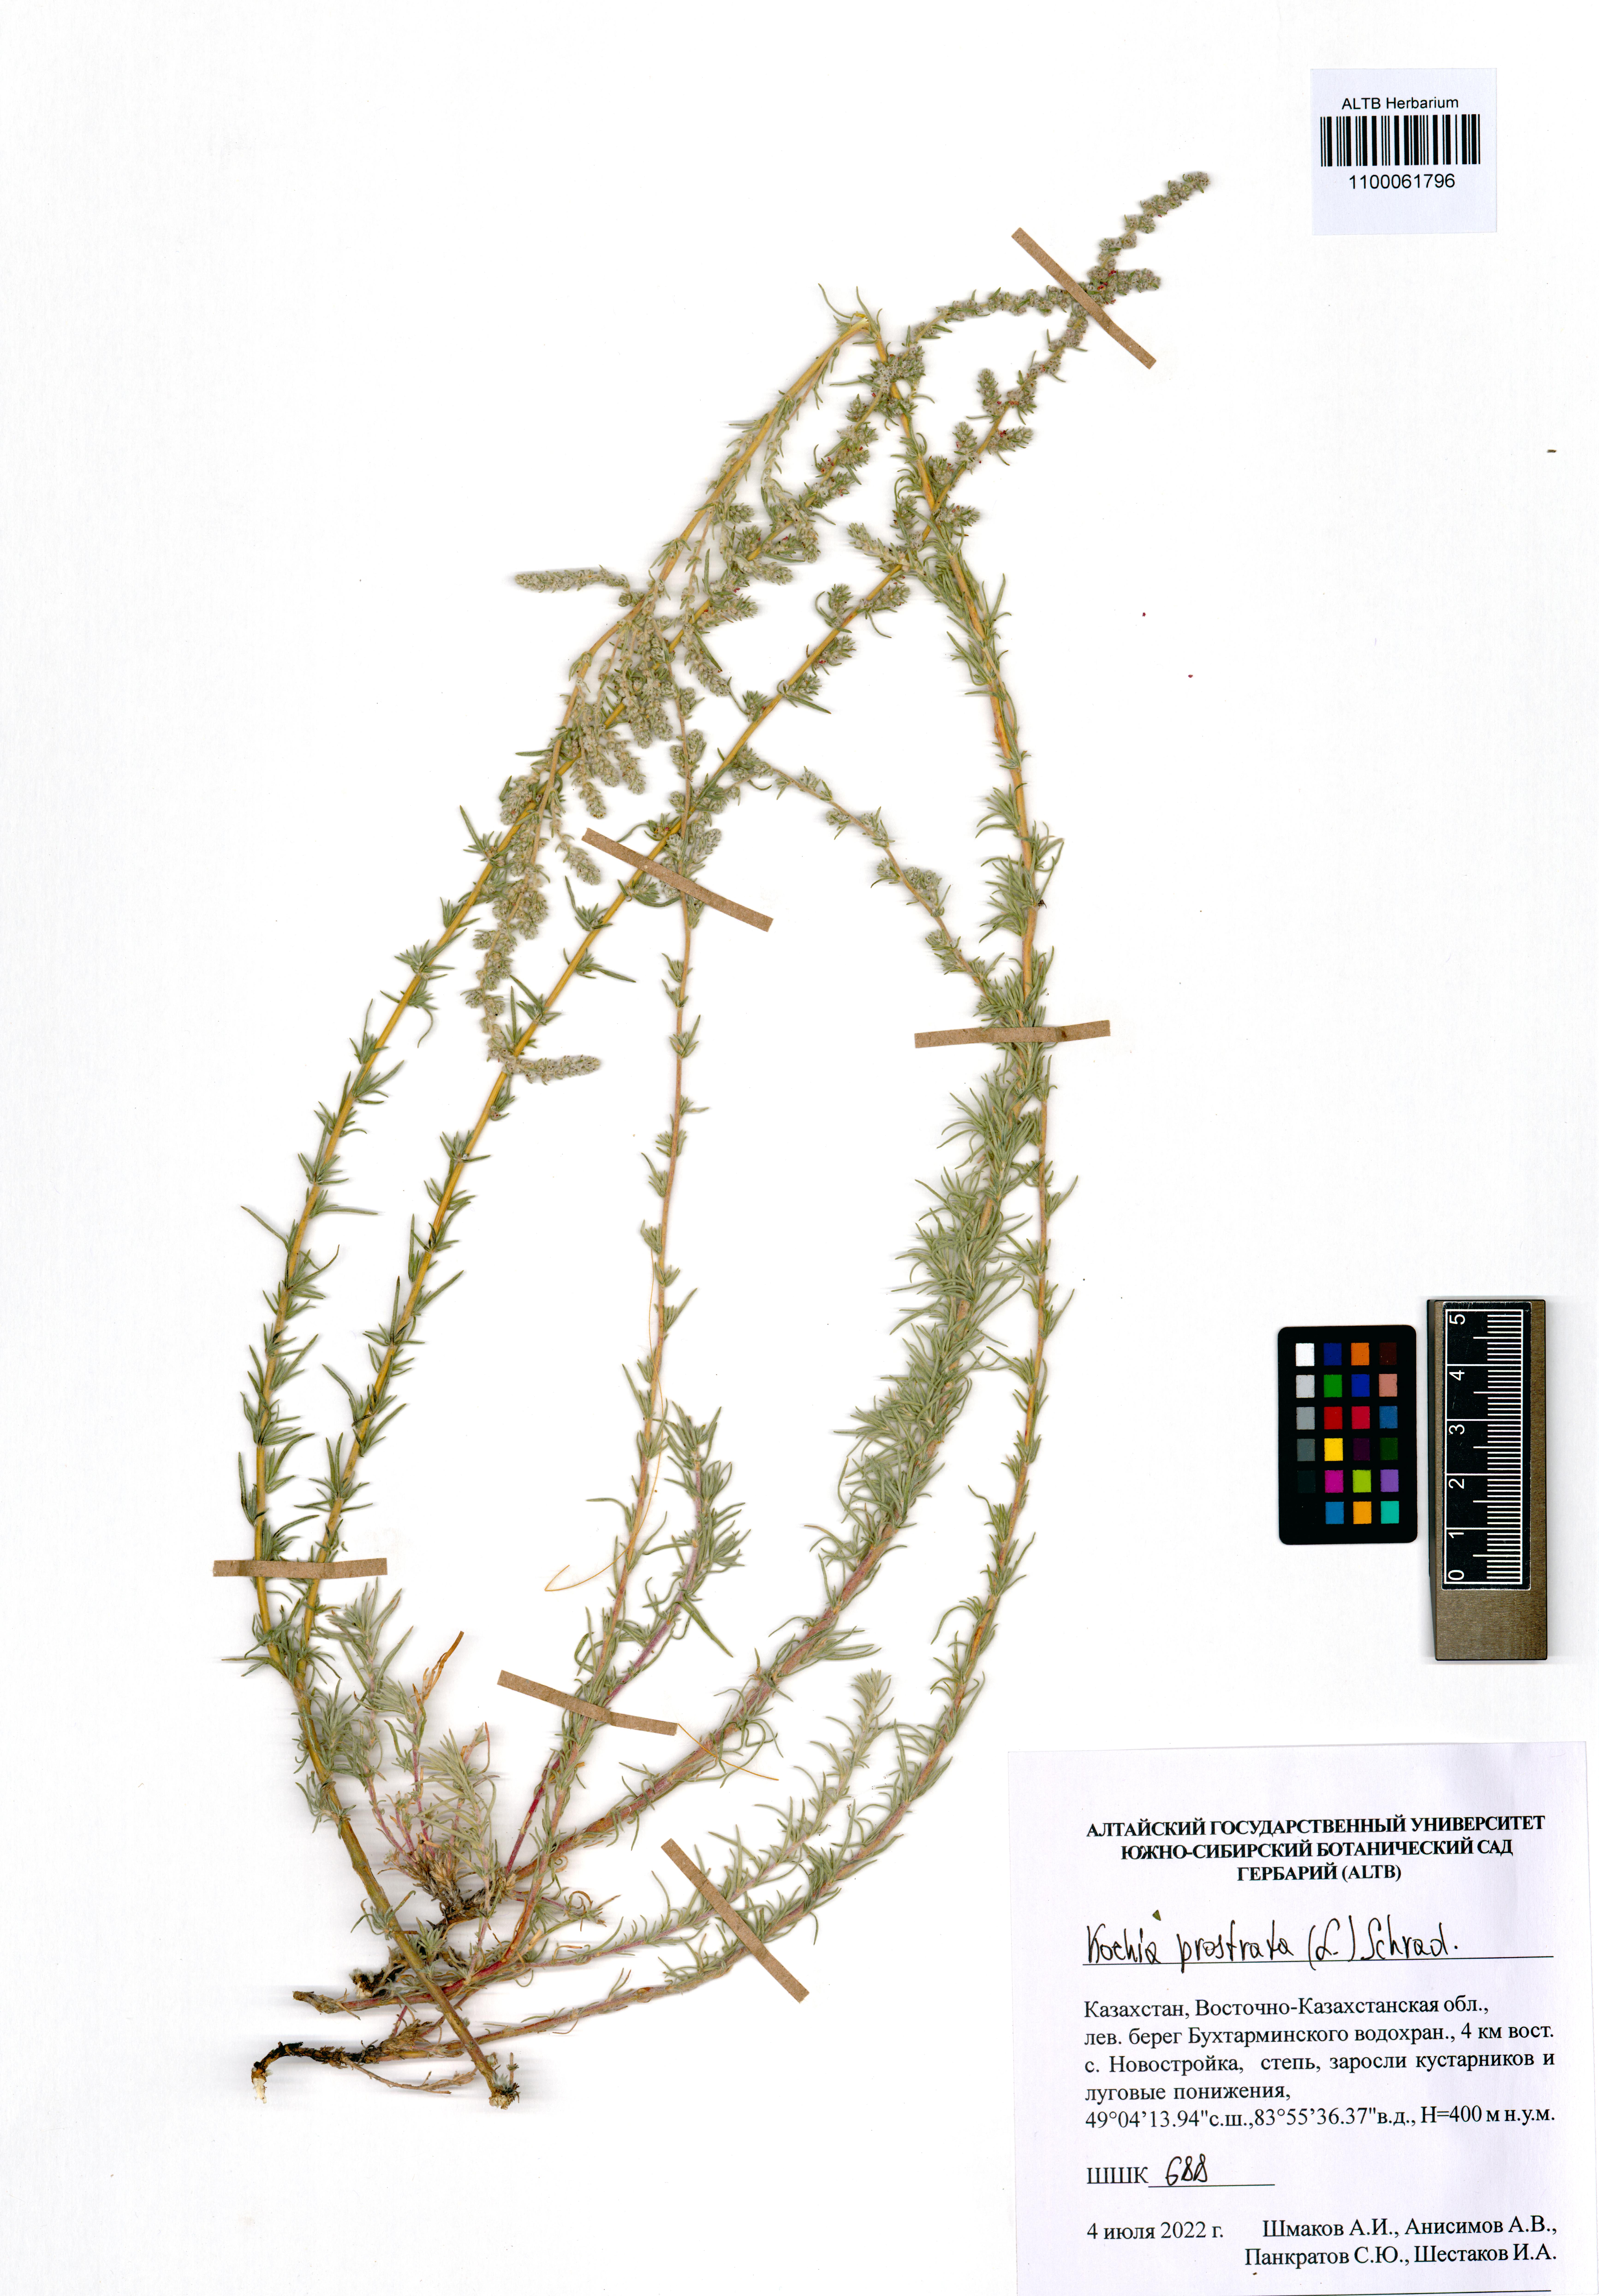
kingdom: Plantae
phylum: Tracheophyta
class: Magnoliopsida
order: Caryophyllales
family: Amaranthaceae
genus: Bassia
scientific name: Bassia prostrata
